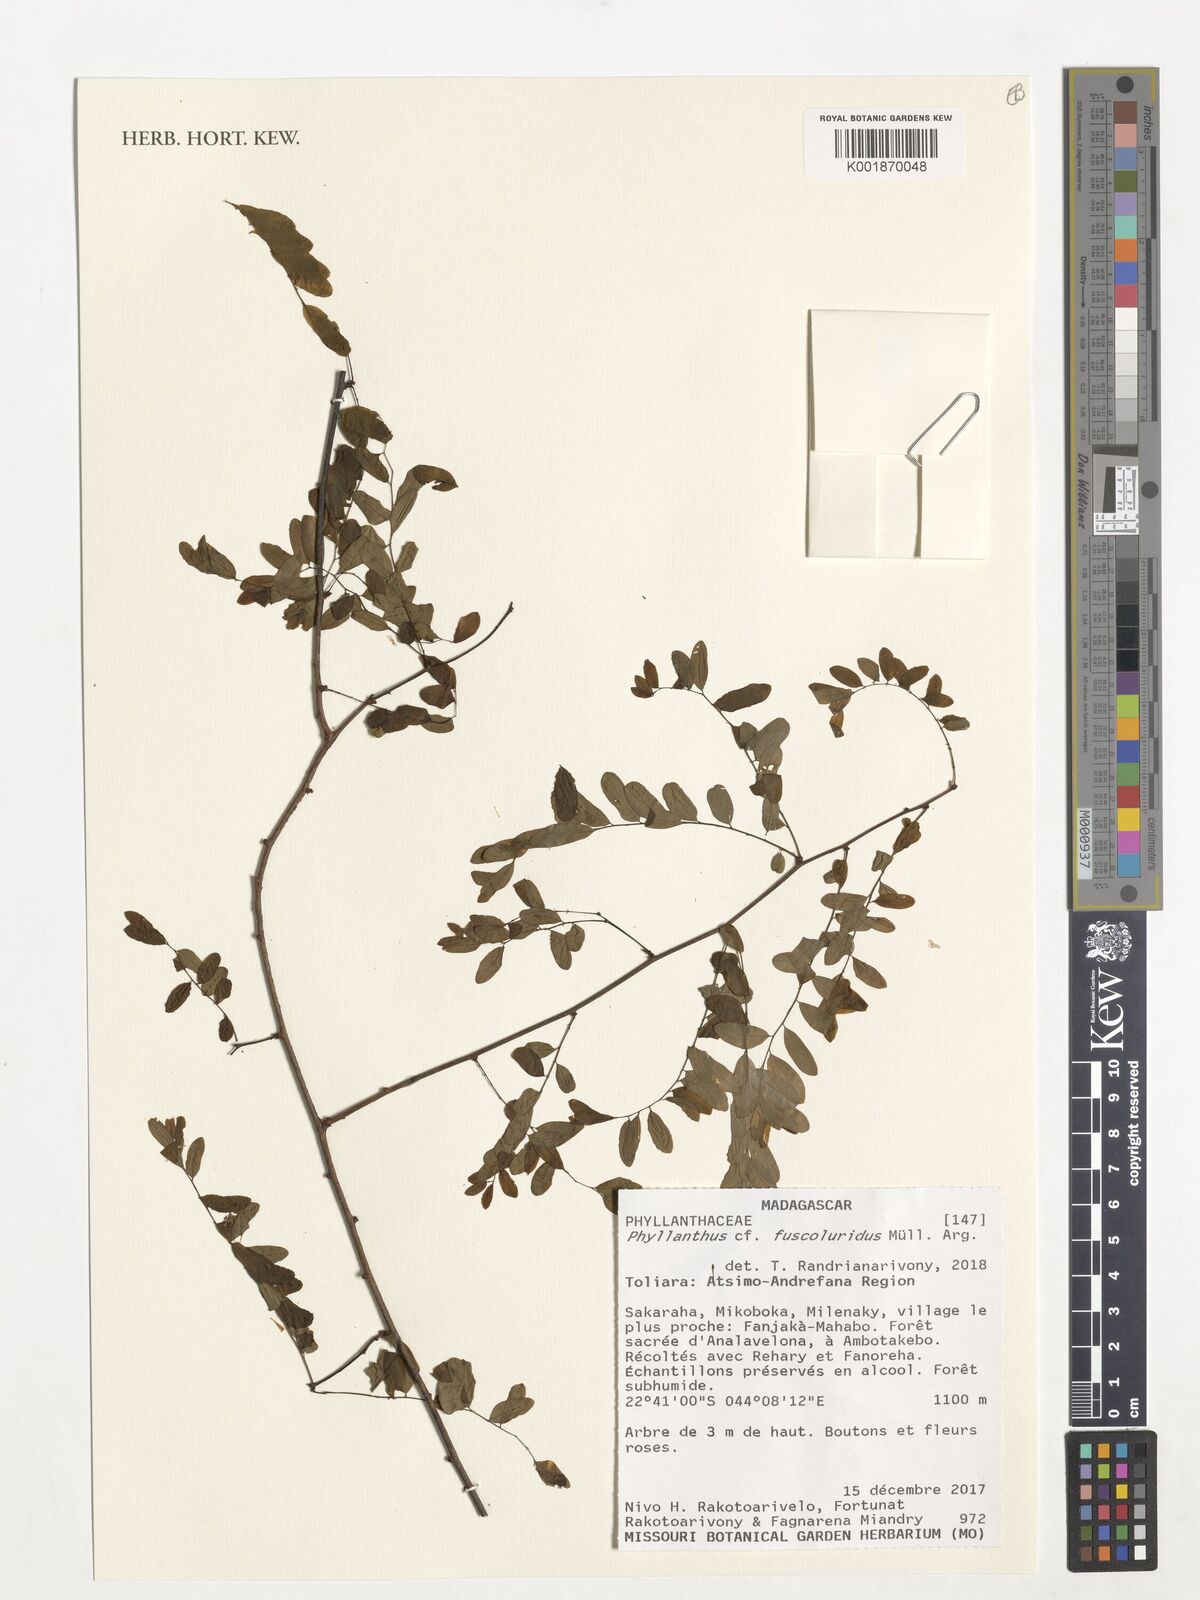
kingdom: Plantae
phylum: Tracheophyta
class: Magnoliopsida
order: Malpighiales
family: Phyllanthaceae
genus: Phyllanthus
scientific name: Phyllanthus fuscoluridus
